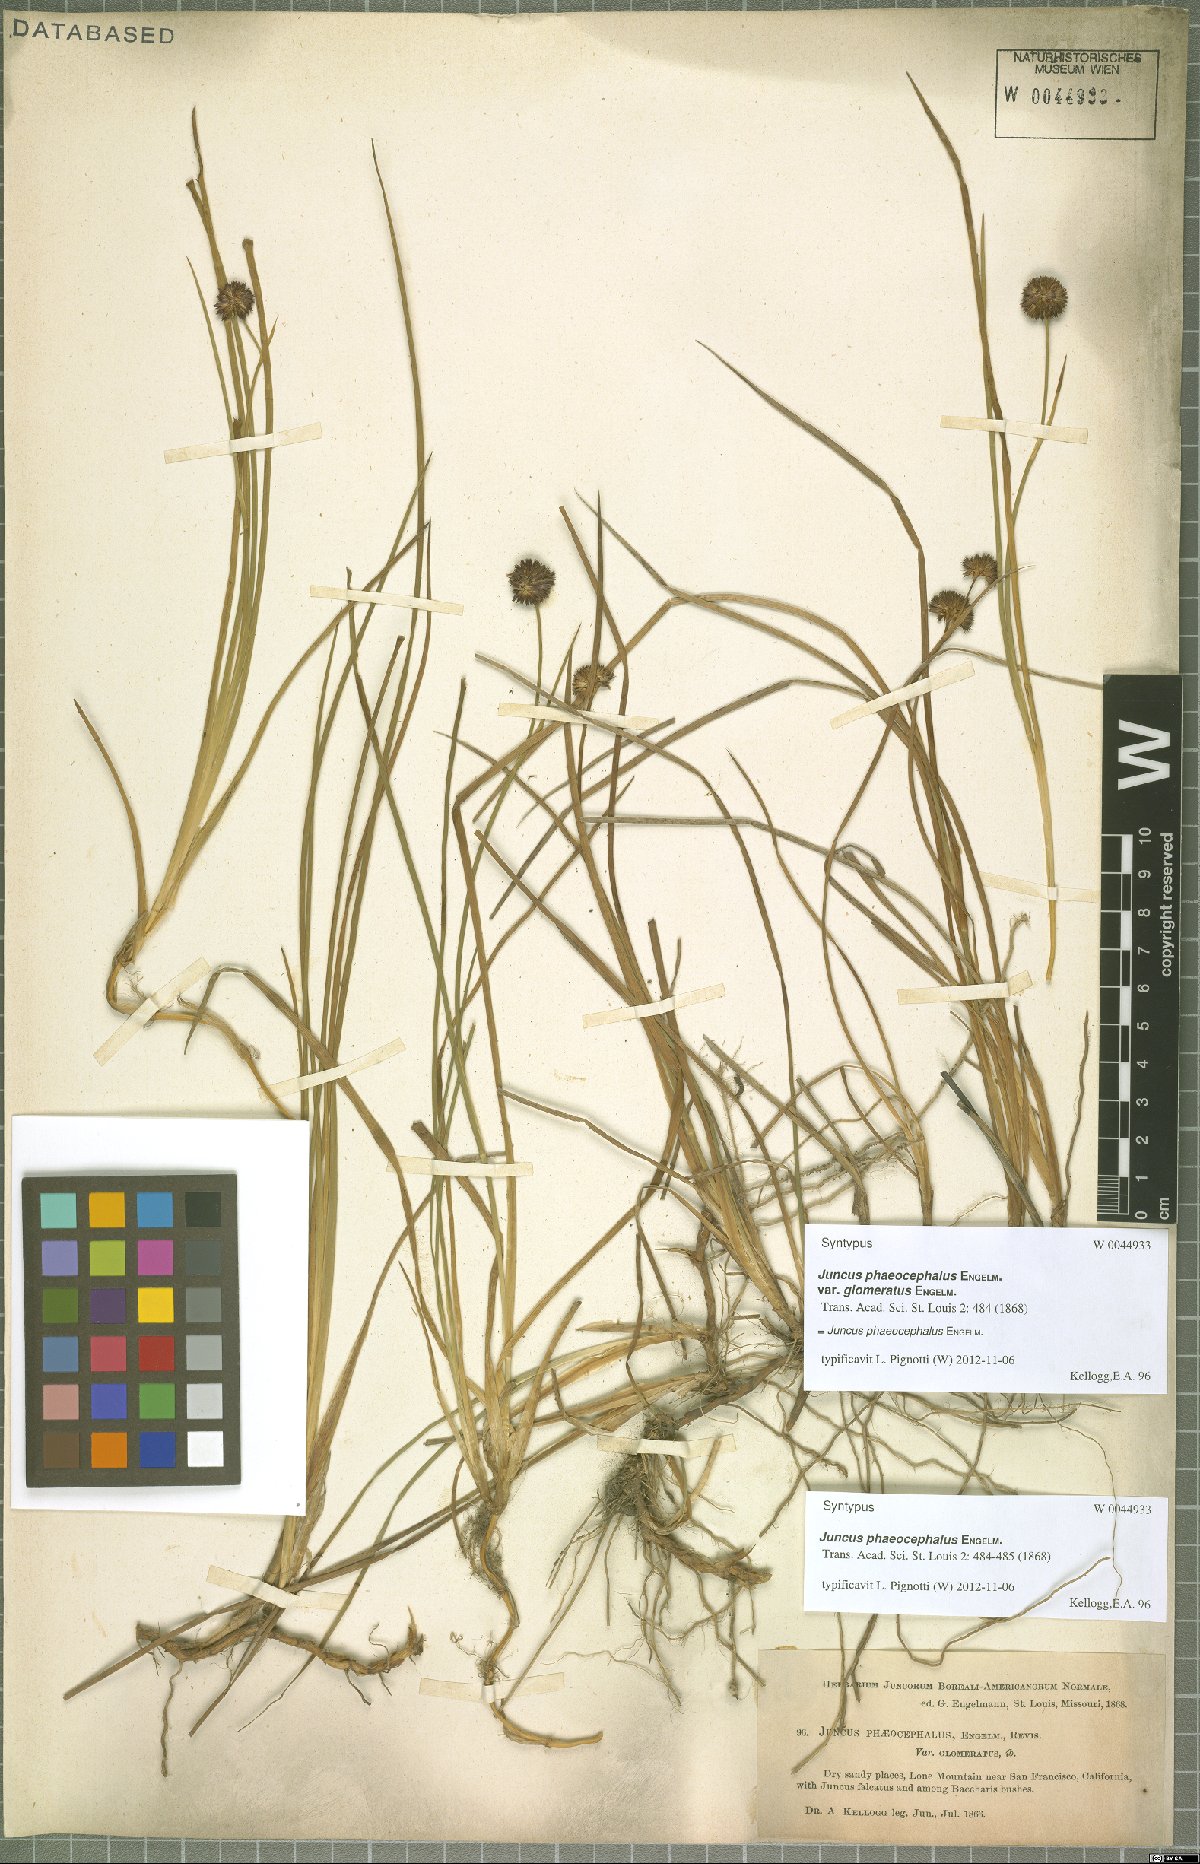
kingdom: Plantae
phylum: Tracheophyta
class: Liliopsida
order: Poales
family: Juncaceae
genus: Juncus
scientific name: Juncus phaeocephalus
